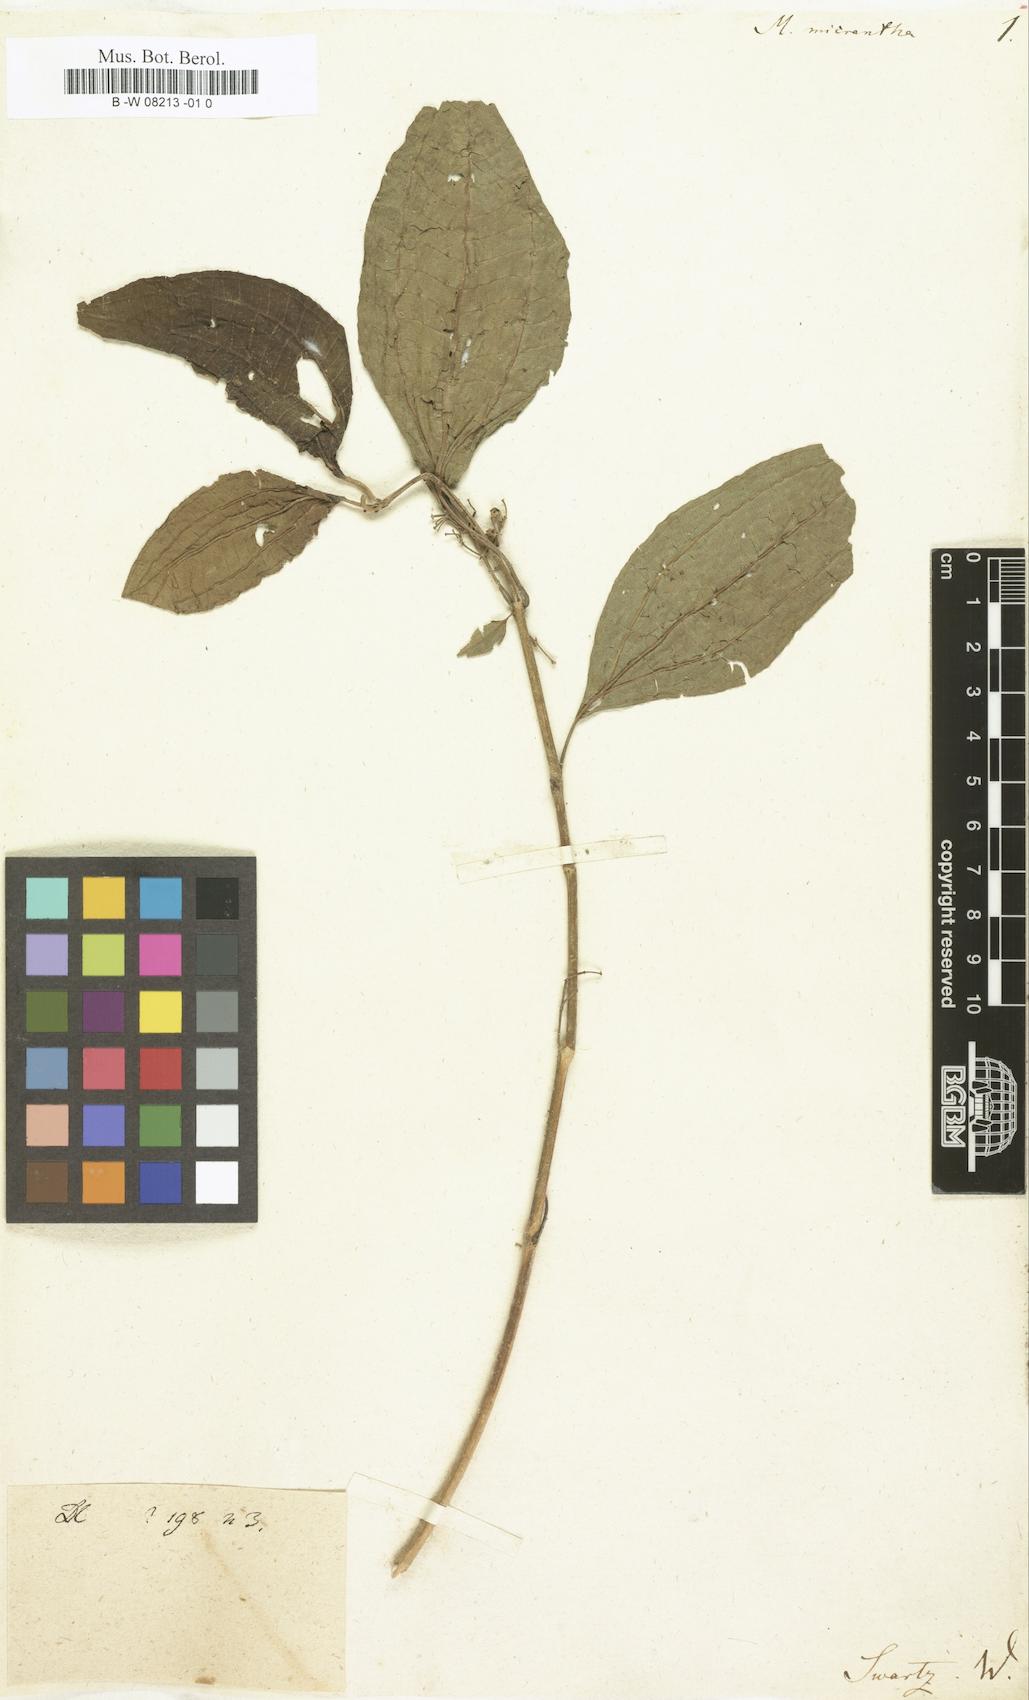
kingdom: Plantae
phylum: Tracheophyta
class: Magnoliopsida
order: Myrtales
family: Melastomataceae
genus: Melastoma
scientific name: Melastoma micranthum
